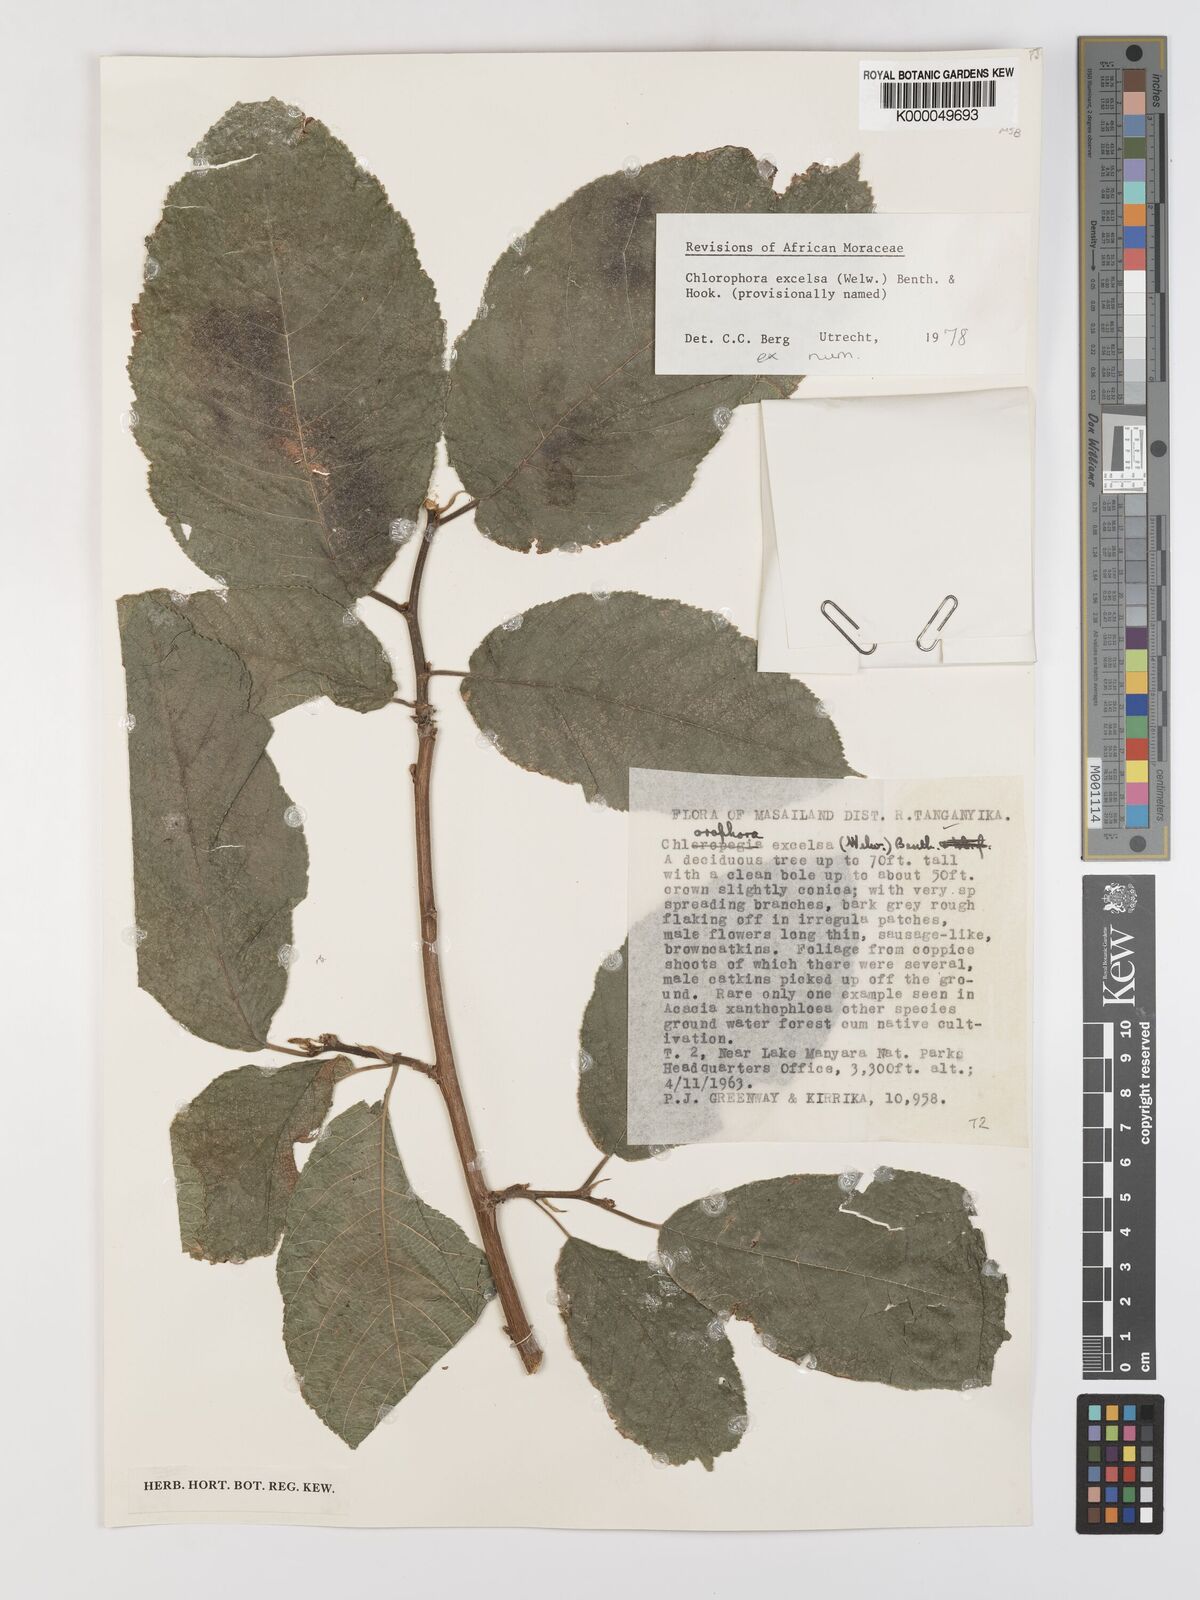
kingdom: Plantae
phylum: Tracheophyta
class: Magnoliopsida
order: Rosales
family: Moraceae
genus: Milicia
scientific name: Milicia excelsa
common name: African teak
